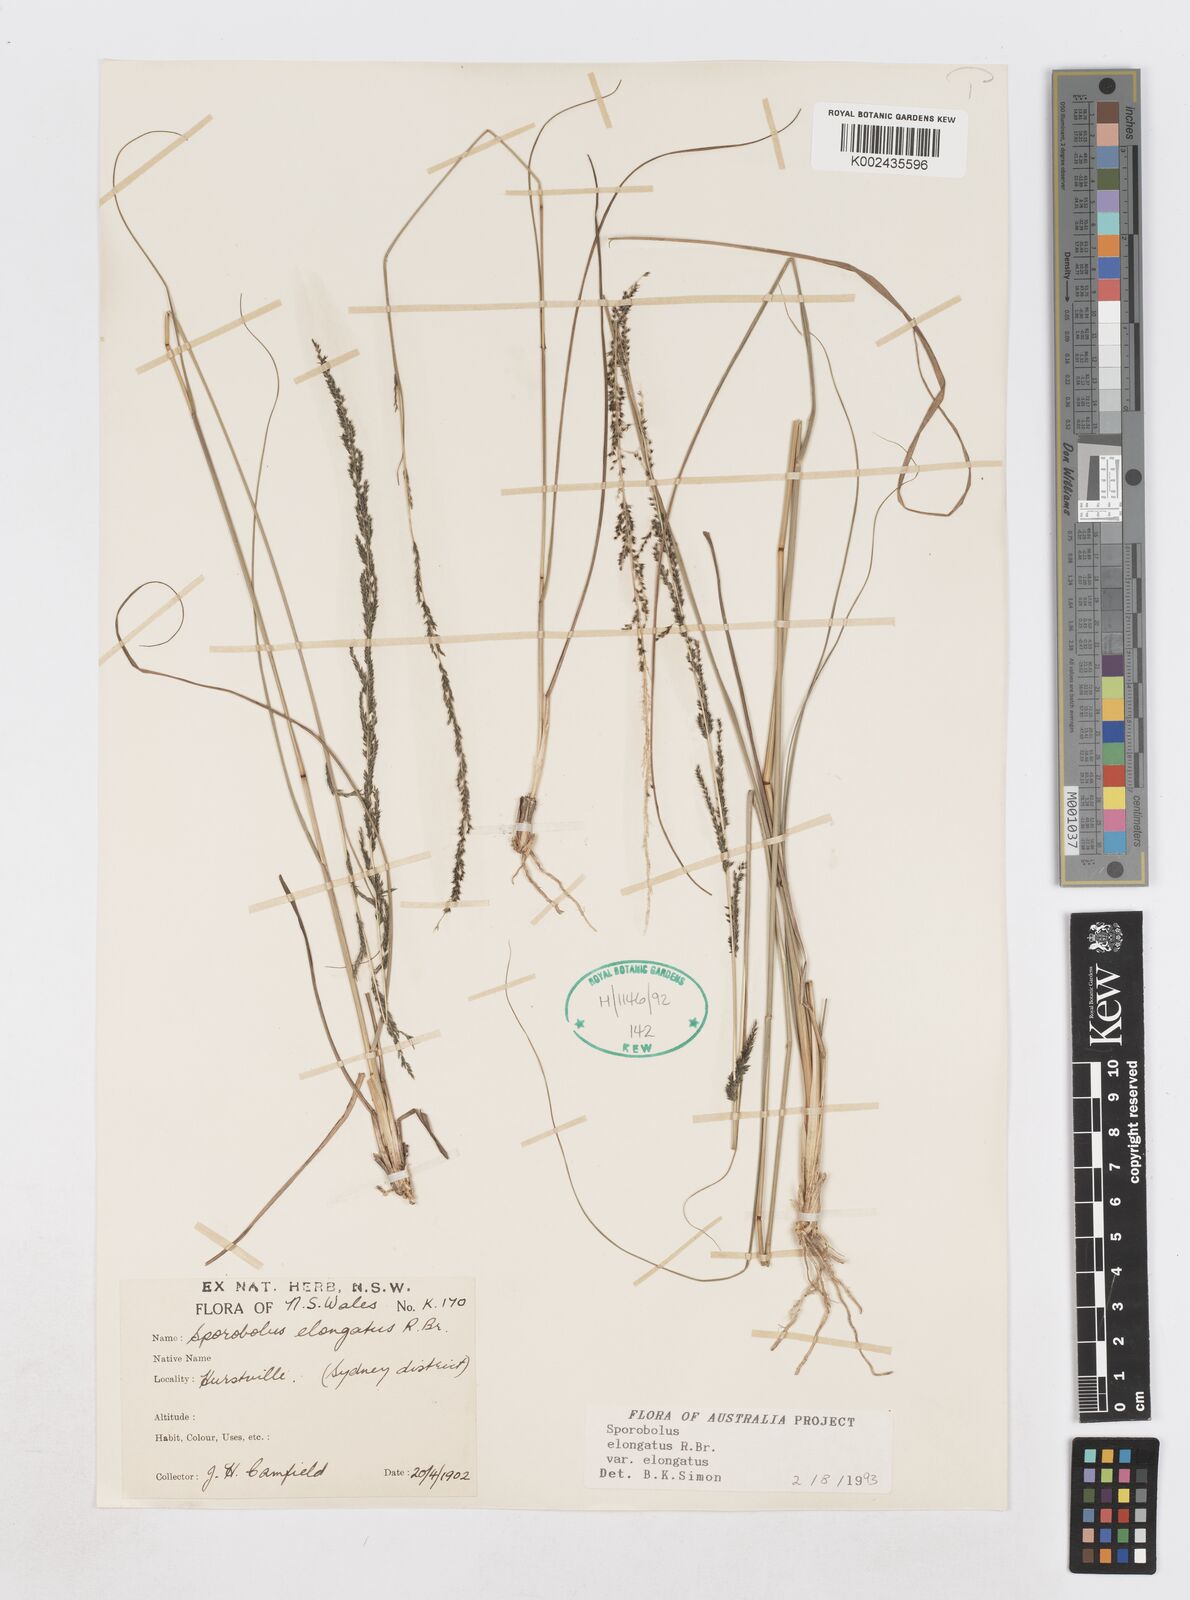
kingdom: Plantae
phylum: Tracheophyta
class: Liliopsida
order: Poales
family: Poaceae
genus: Sporobolus
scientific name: Sporobolus elongatus
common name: Rat tail grass
